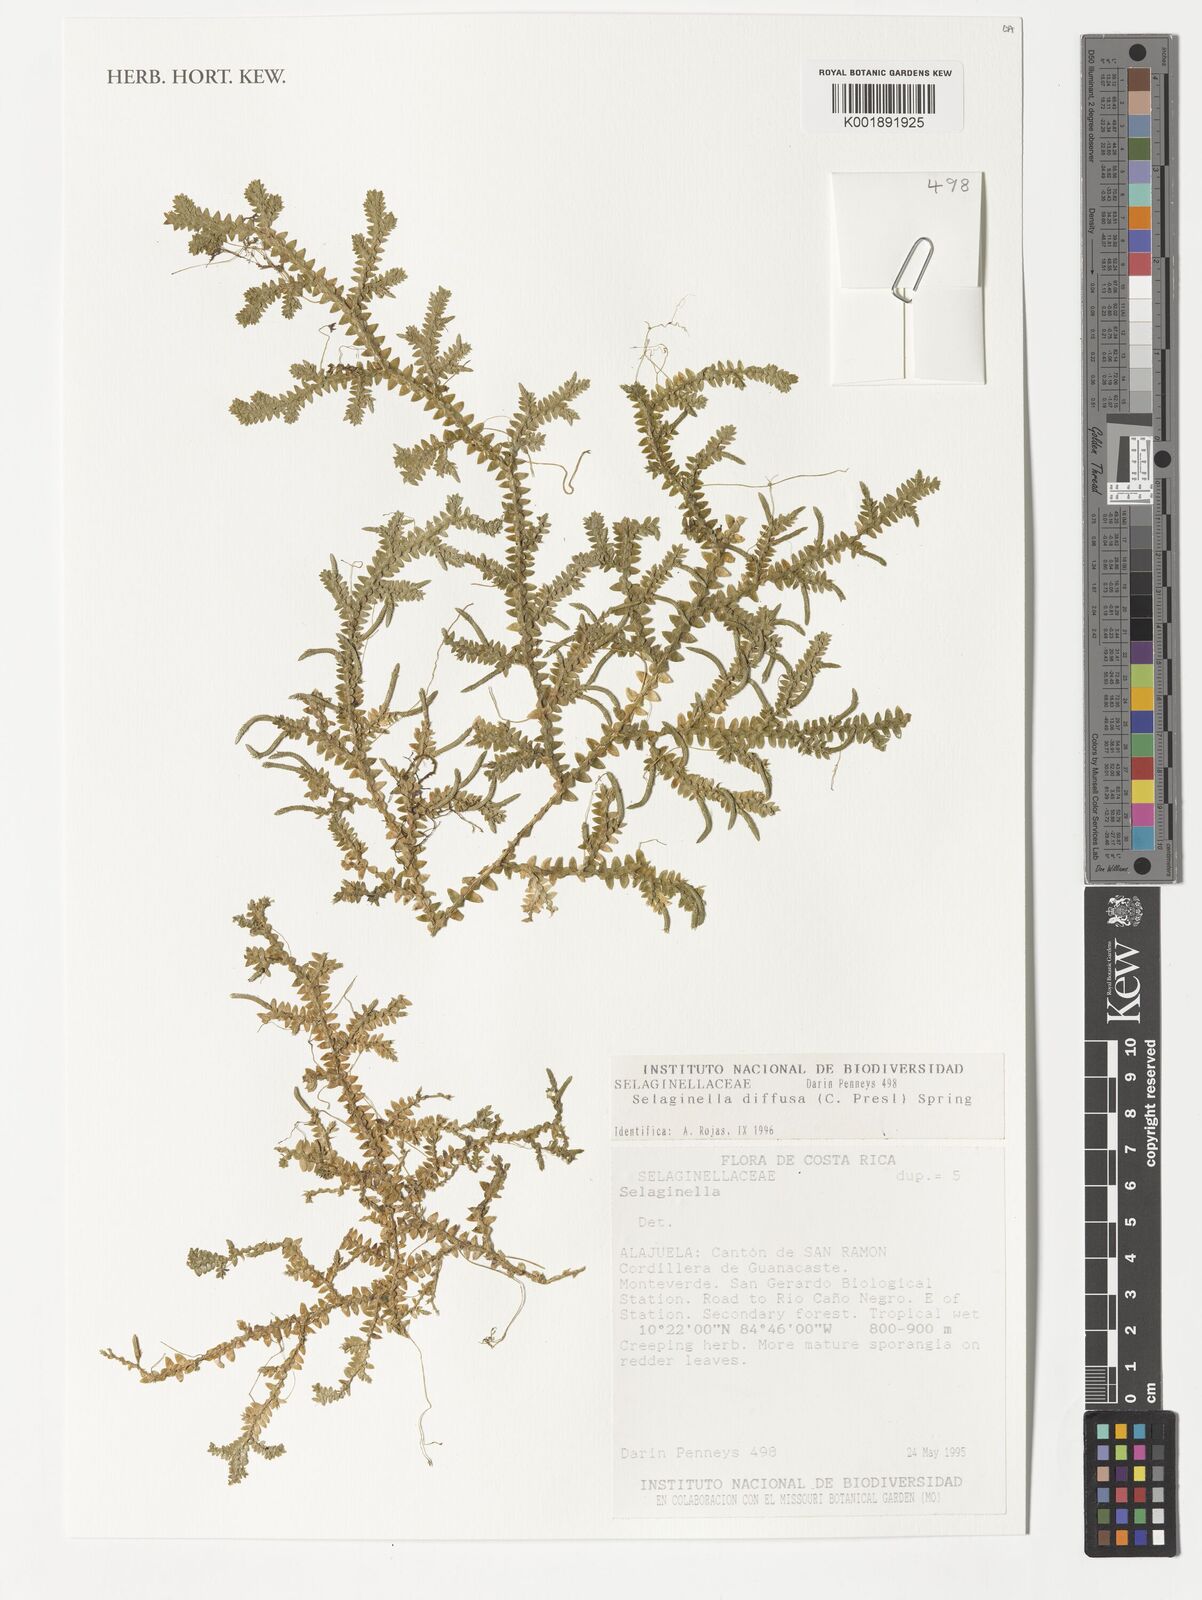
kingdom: Plantae
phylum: Tracheophyta
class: Lycopodiopsida
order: Selaginellales
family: Selaginellaceae
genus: Selaginella
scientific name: Selaginella diffusa
